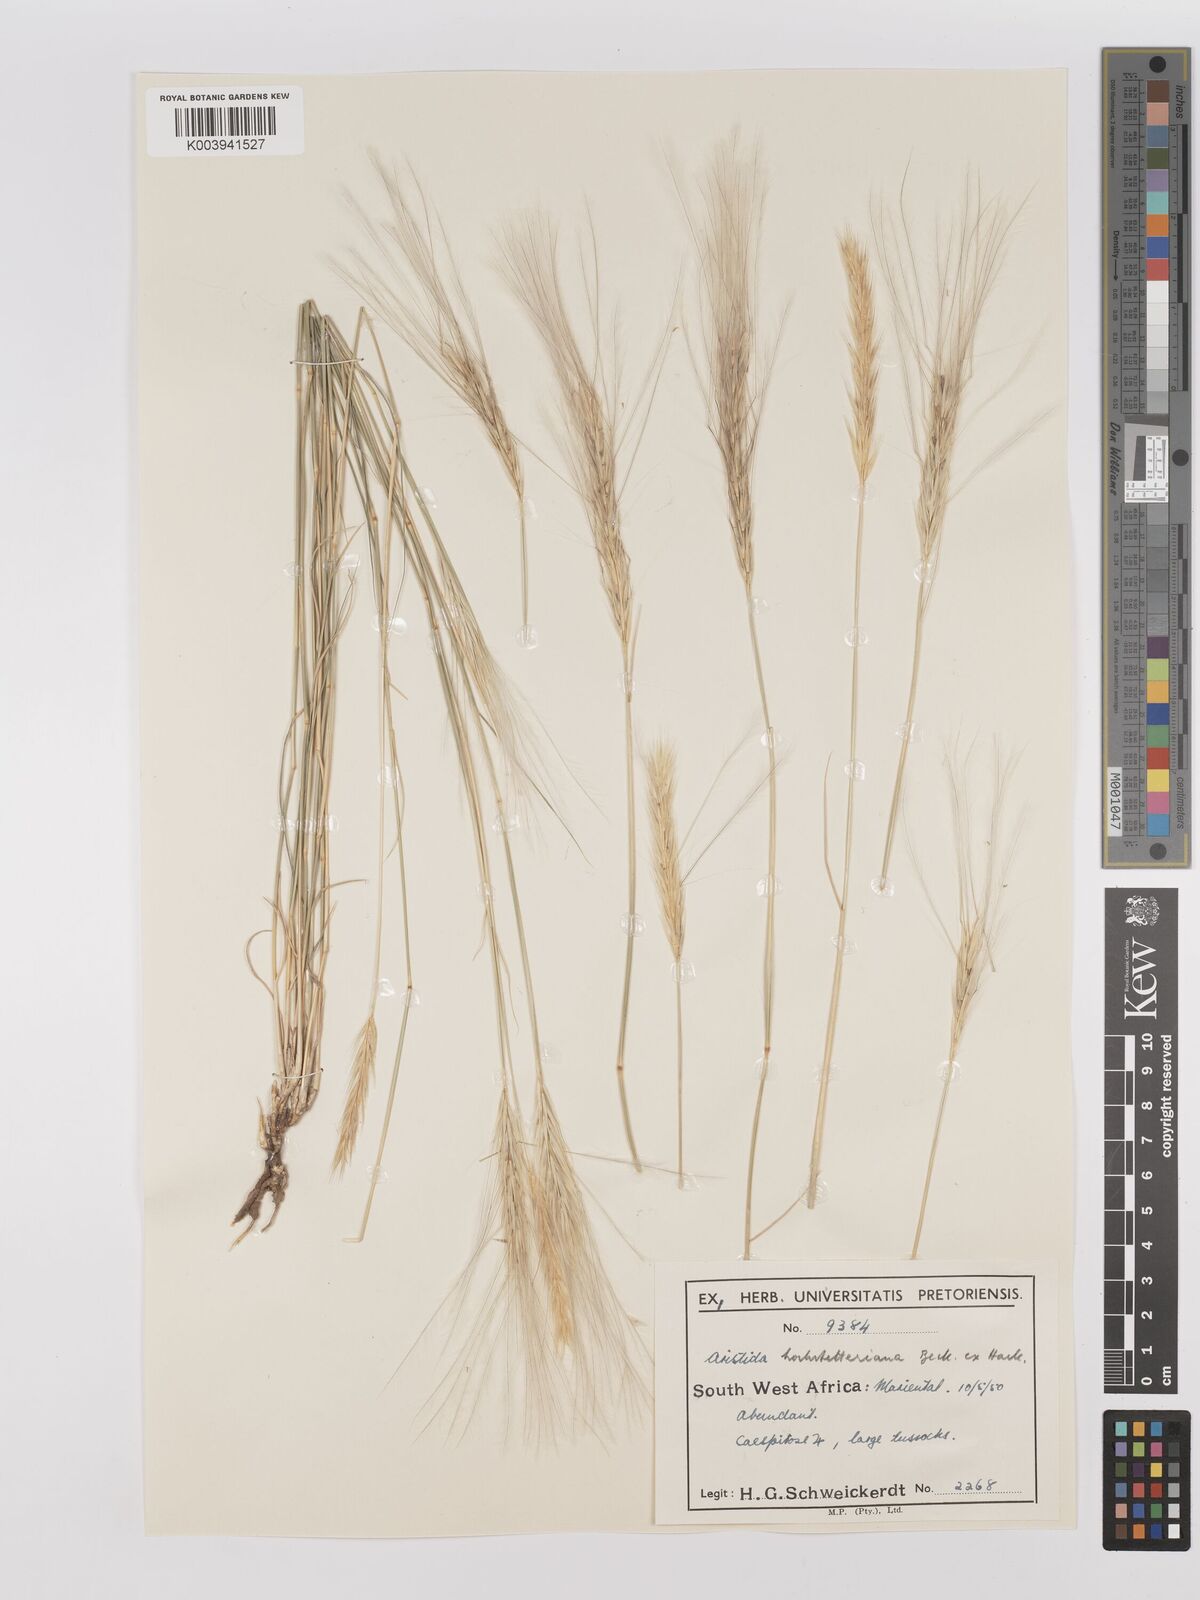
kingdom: Plantae
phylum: Tracheophyta
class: Liliopsida
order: Poales
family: Poaceae
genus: Stipagrostis
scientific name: Stipagrostis hochstetteriana
